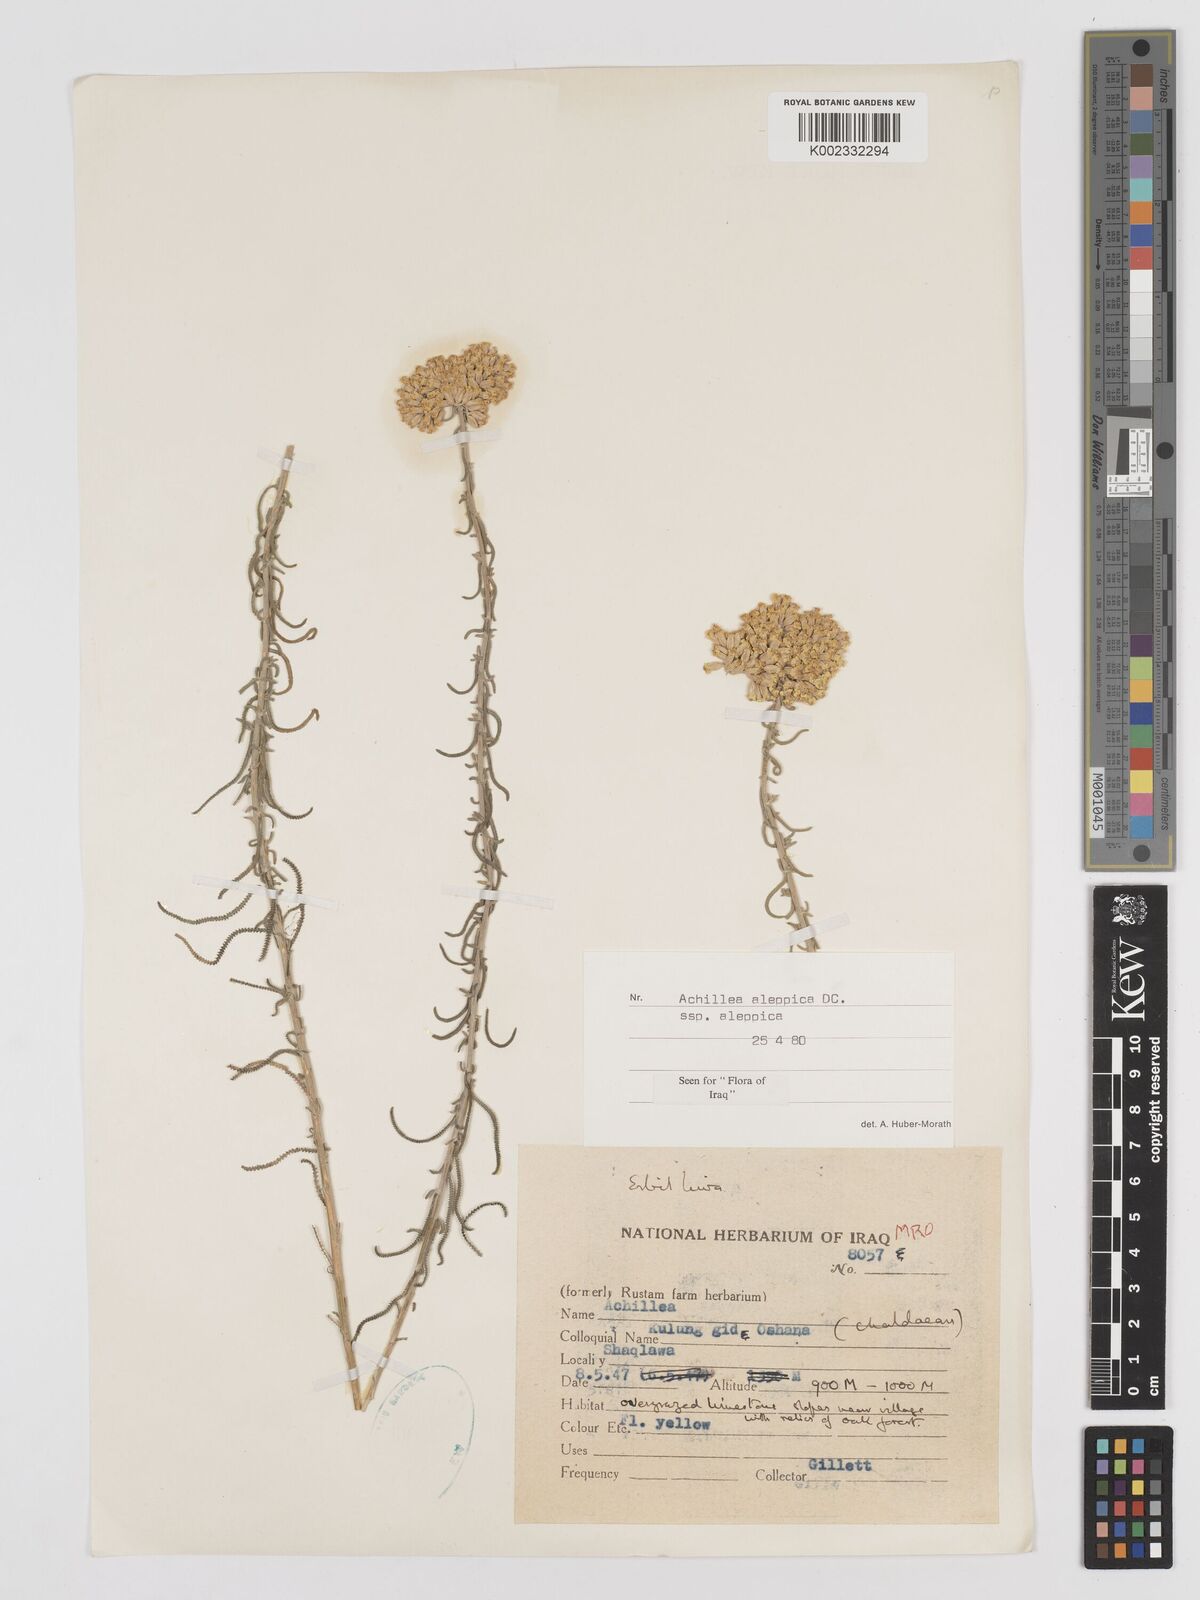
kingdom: Plantae
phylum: Tracheophyta
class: Magnoliopsida
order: Asterales
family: Asteraceae
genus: Achillea
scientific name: Achillea aleppica
